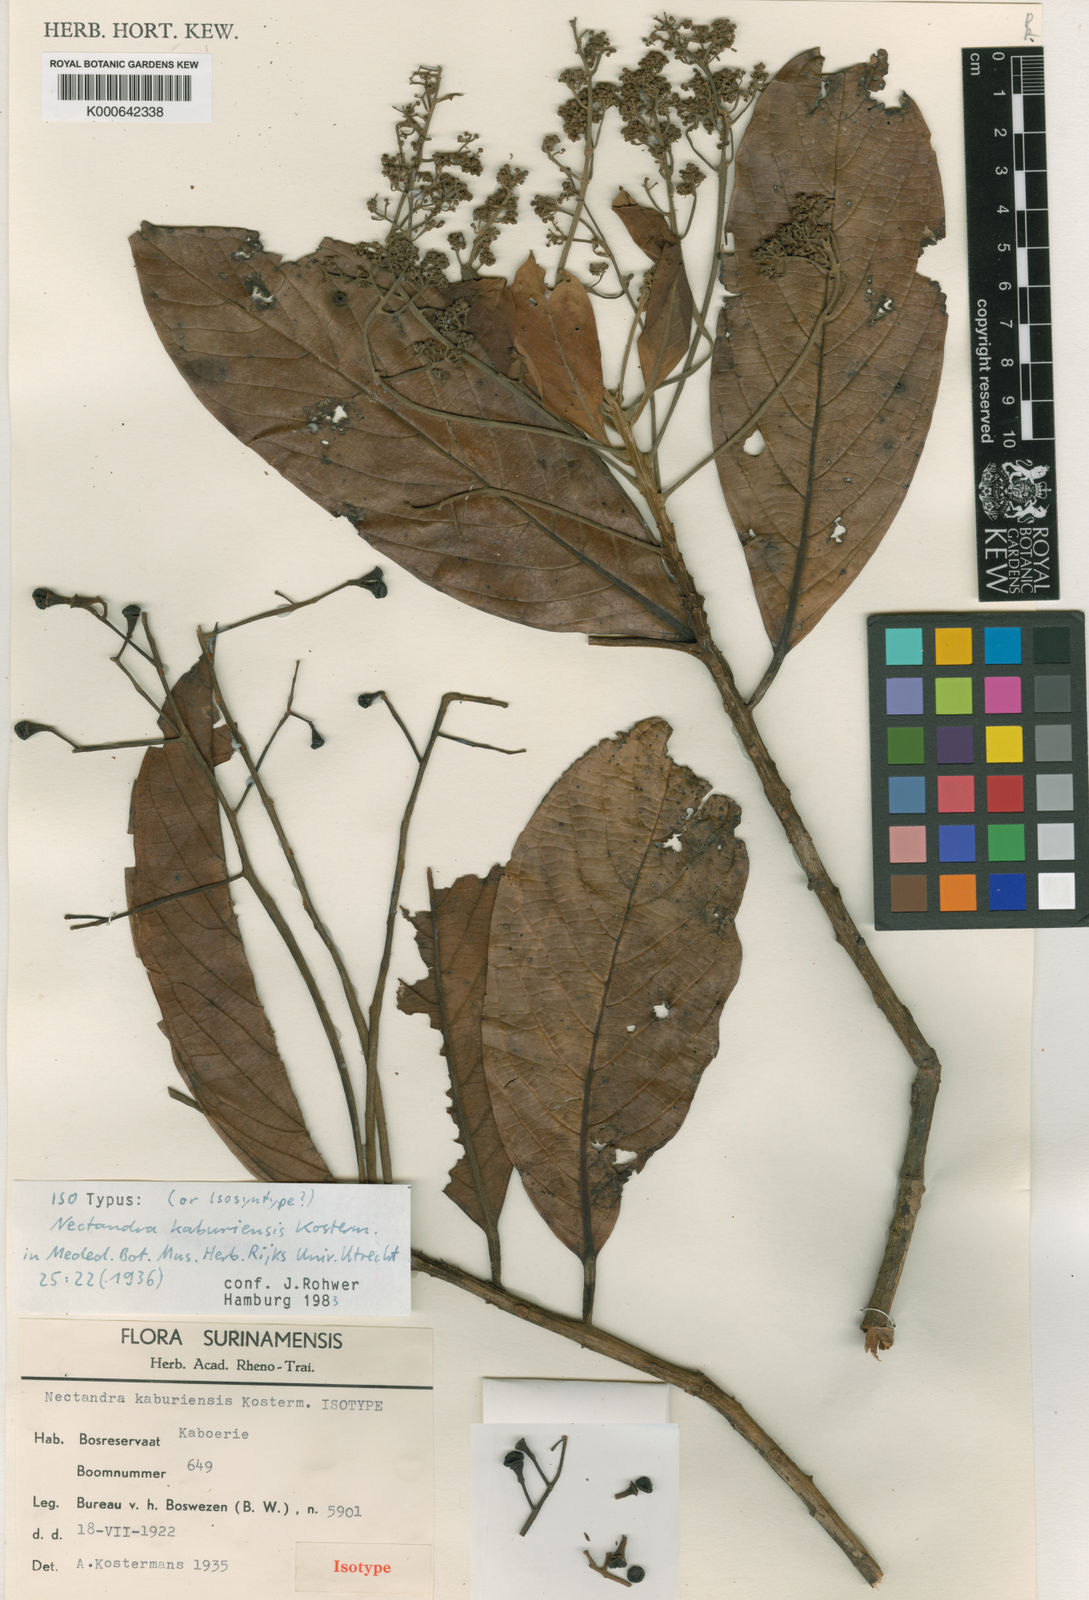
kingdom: Plantae
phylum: Tracheophyta
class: Magnoliopsida
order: Laurales
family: Lauraceae
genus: Nectandra
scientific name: Nectandra cissiflora
